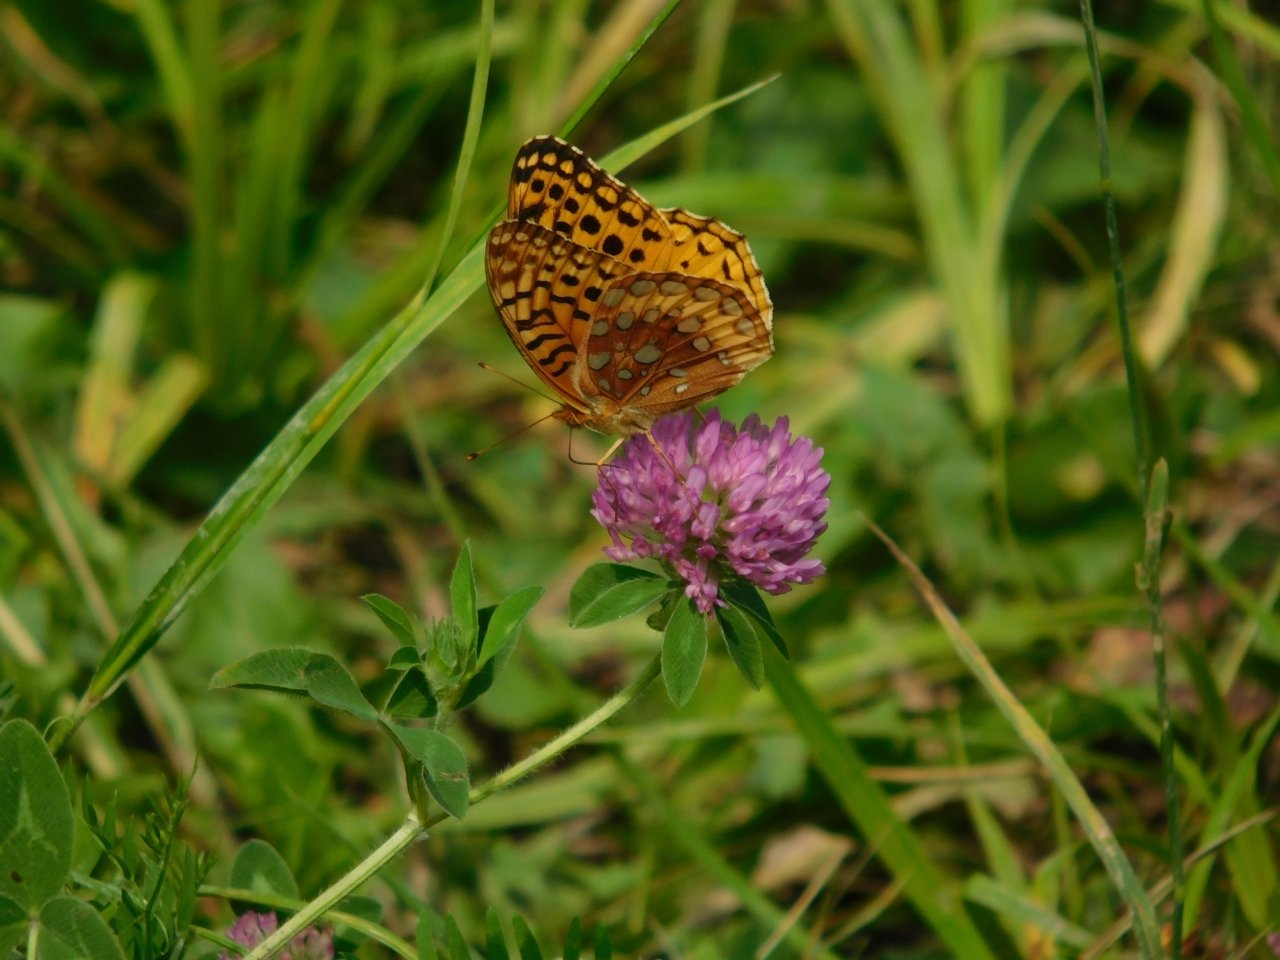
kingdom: Animalia
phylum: Arthropoda
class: Insecta
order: Lepidoptera
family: Nymphalidae
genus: Speyeria
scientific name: Speyeria cybele
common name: Great Spangled Fritillary
